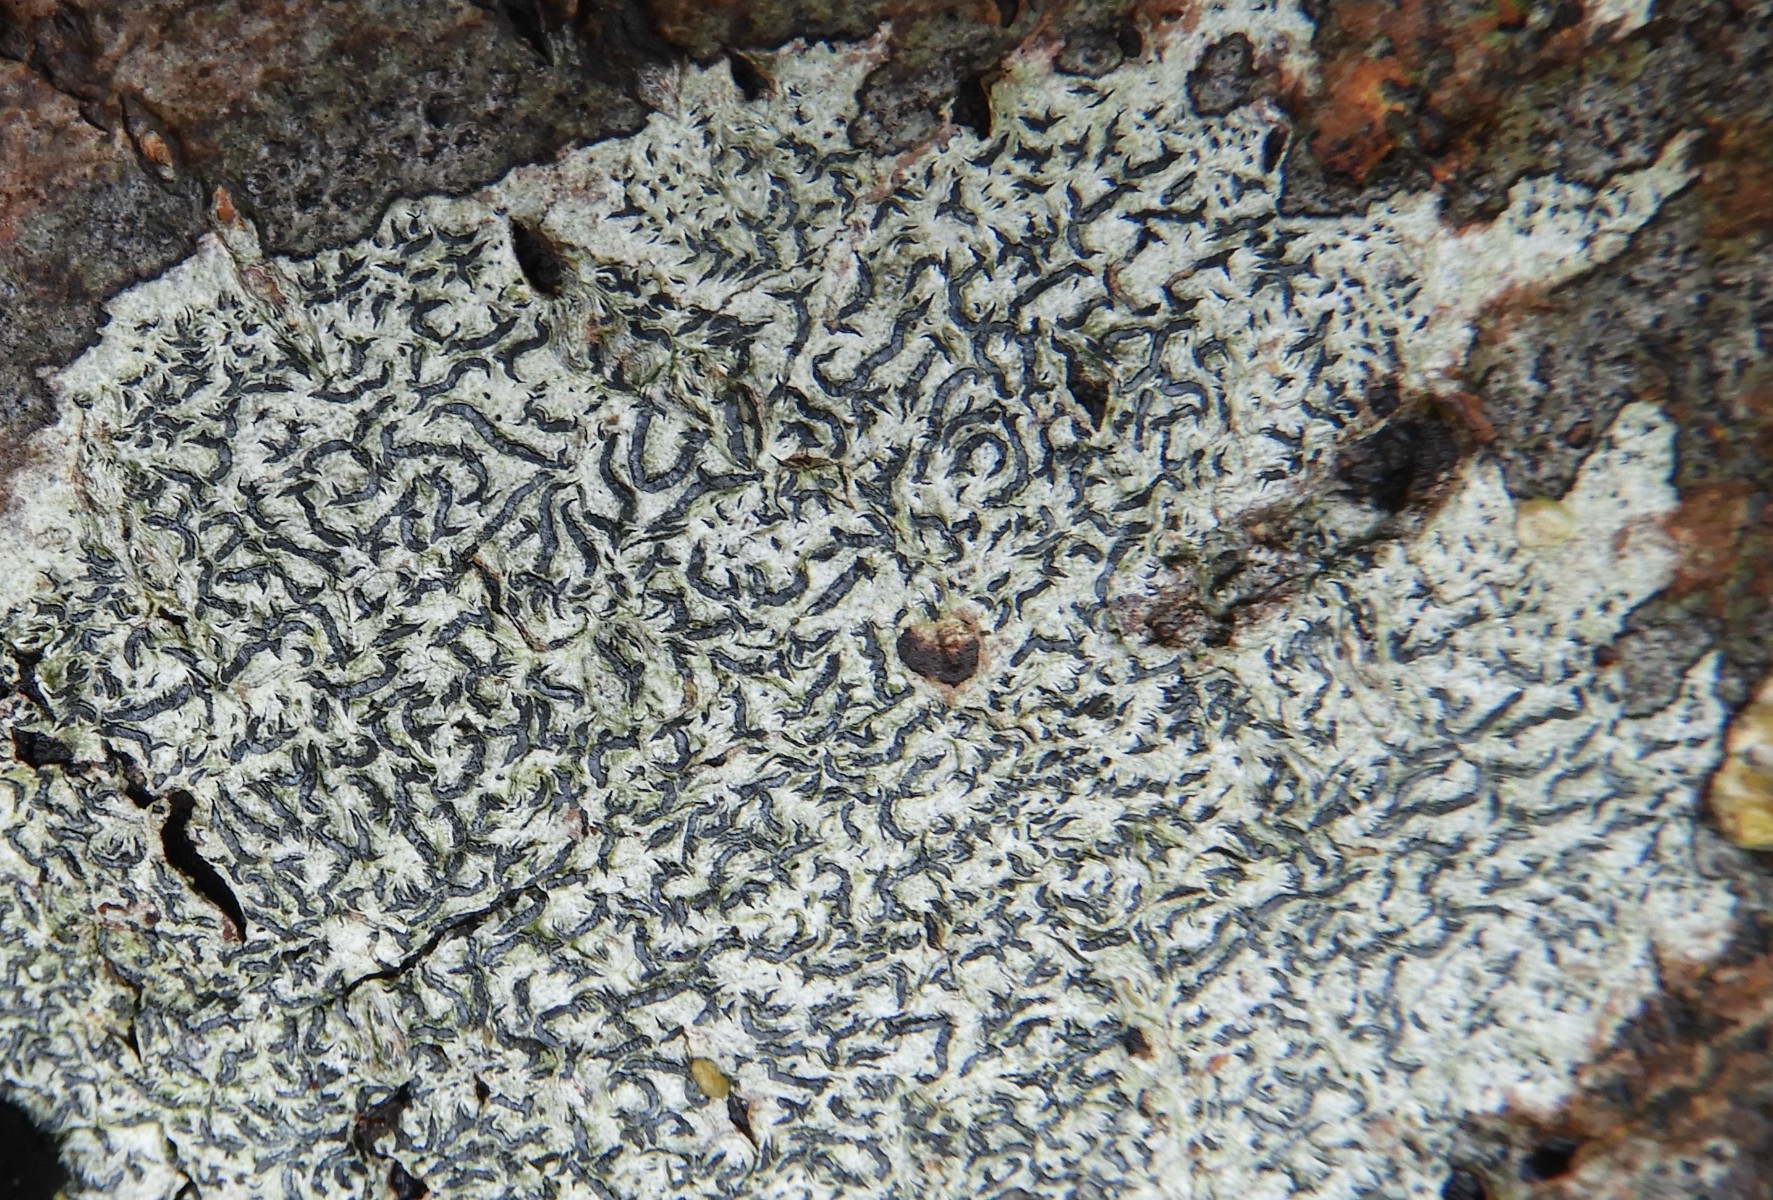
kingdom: Fungi
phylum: Ascomycota
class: Lecanoromycetes
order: Ostropales
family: Graphidaceae
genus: Graphis
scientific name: Graphis scripta
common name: almindelig skriftlav
